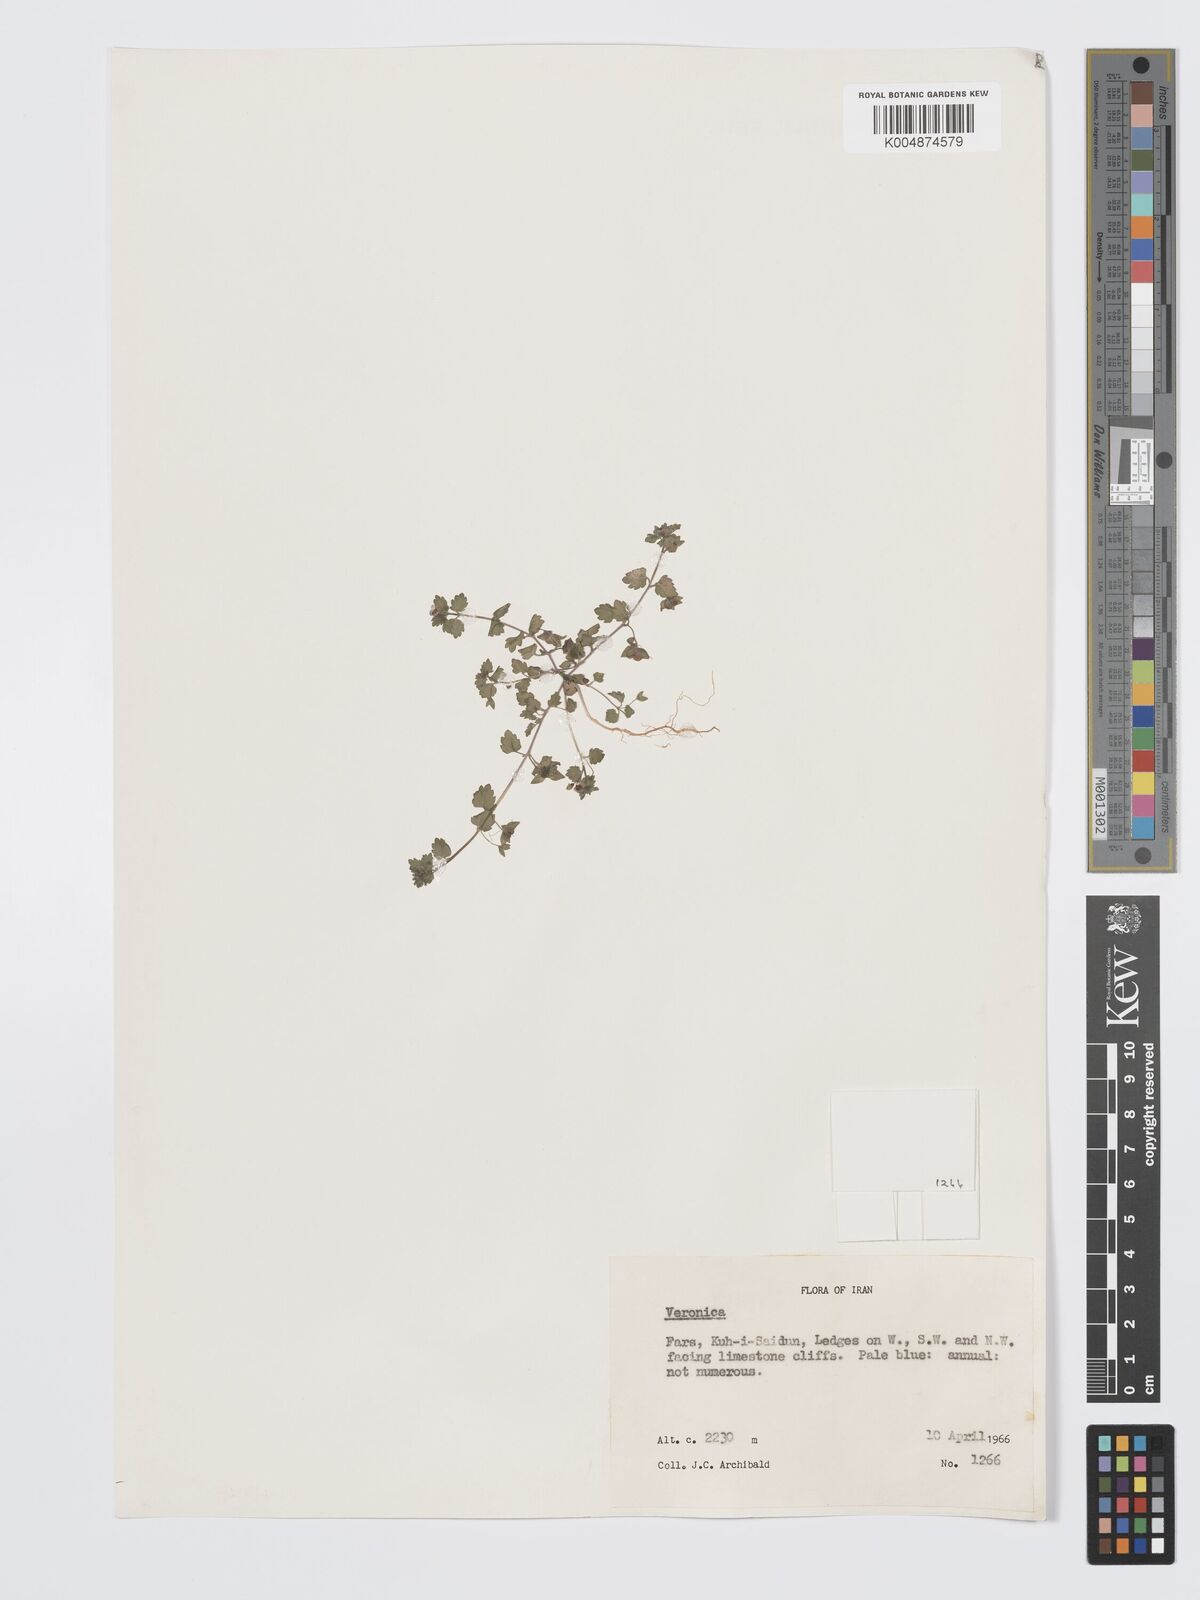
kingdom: Plantae
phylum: Tracheophyta
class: Magnoliopsida
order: Lamiales
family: Plantaginaceae
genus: Veronica
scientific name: Veronica
